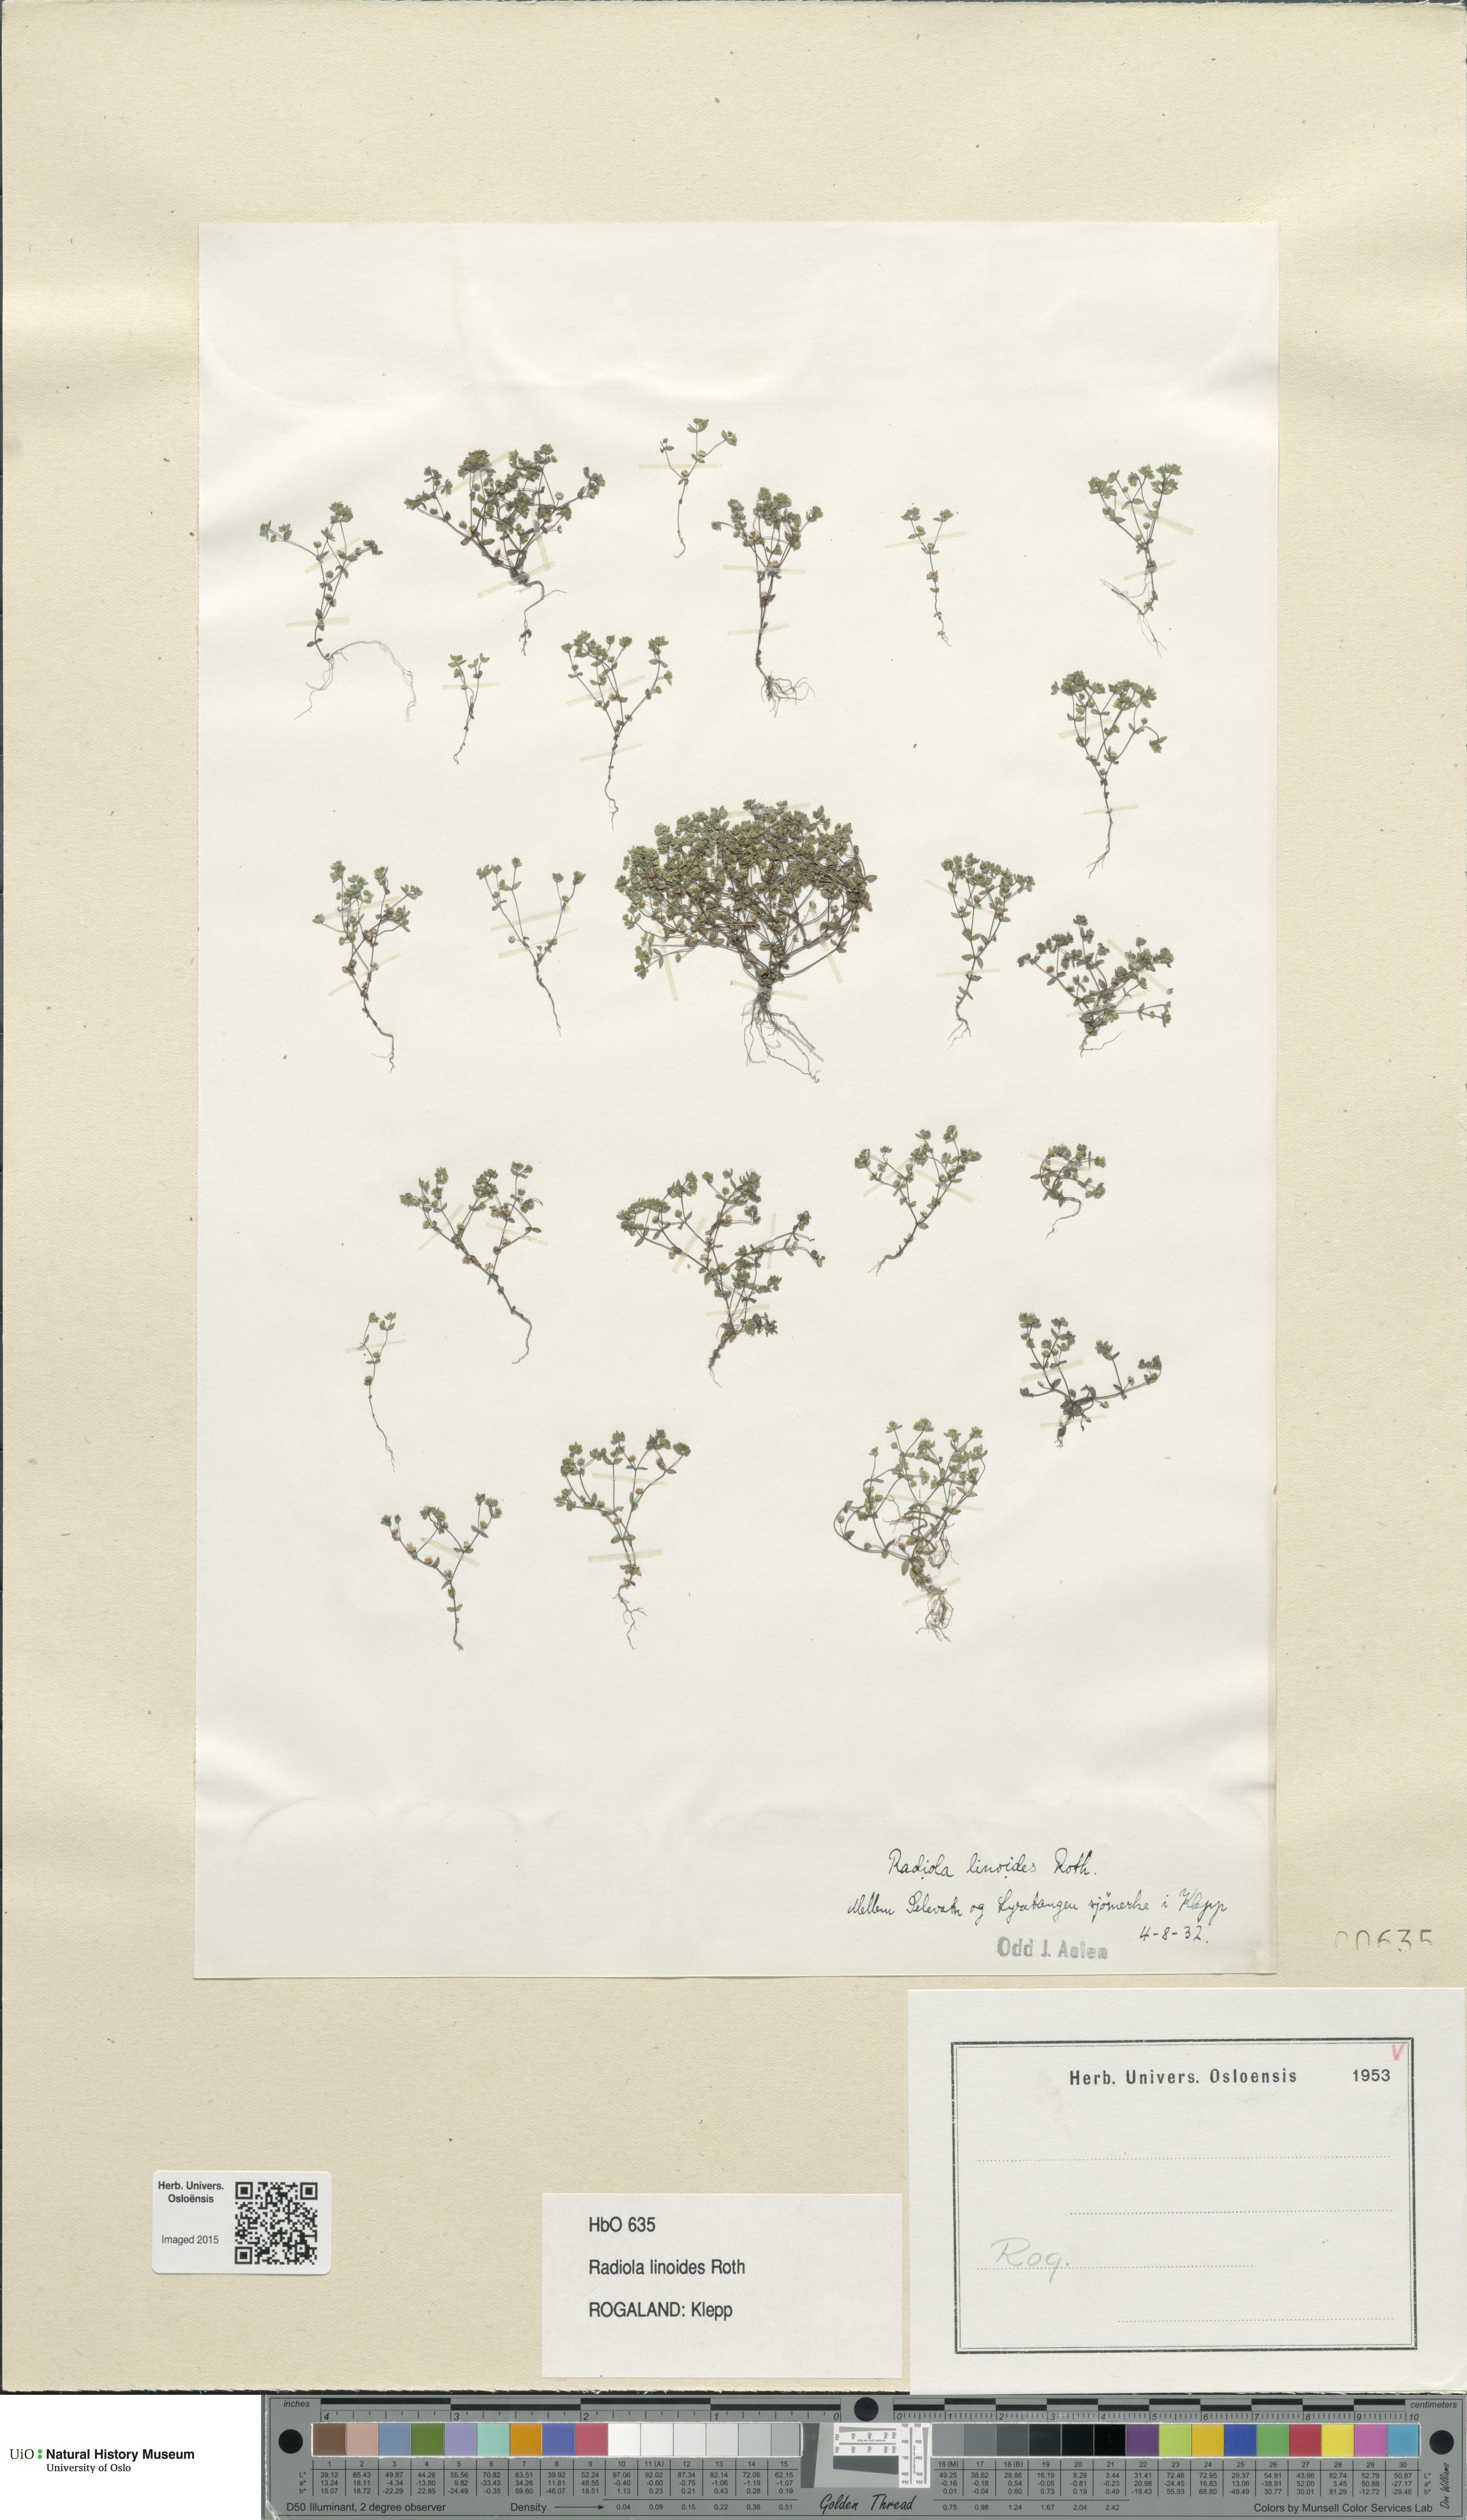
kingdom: Plantae
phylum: Tracheophyta
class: Magnoliopsida
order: Malpighiales
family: Linaceae
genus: Radiola
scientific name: Radiola linoides
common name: Allseed
